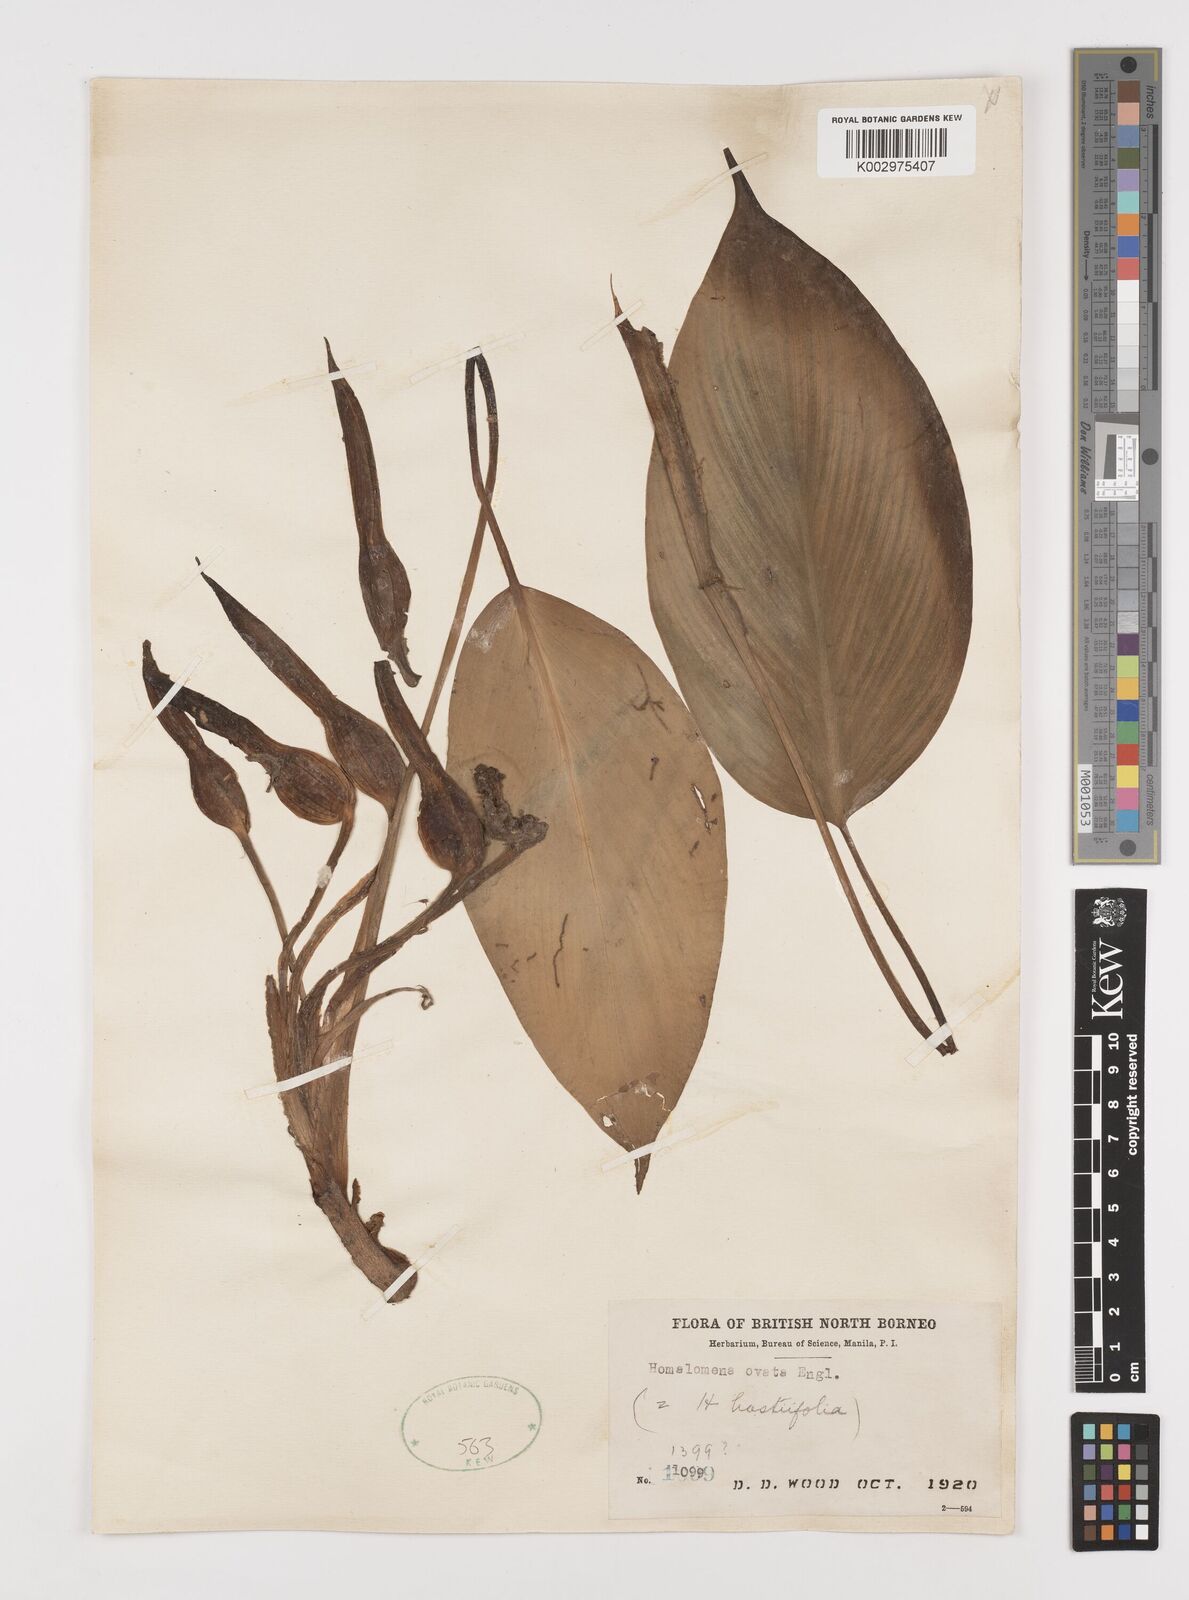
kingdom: Plantae
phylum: Tracheophyta
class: Liliopsida
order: Alismatales
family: Araceae
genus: Homalomena
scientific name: Homalomena ovata
